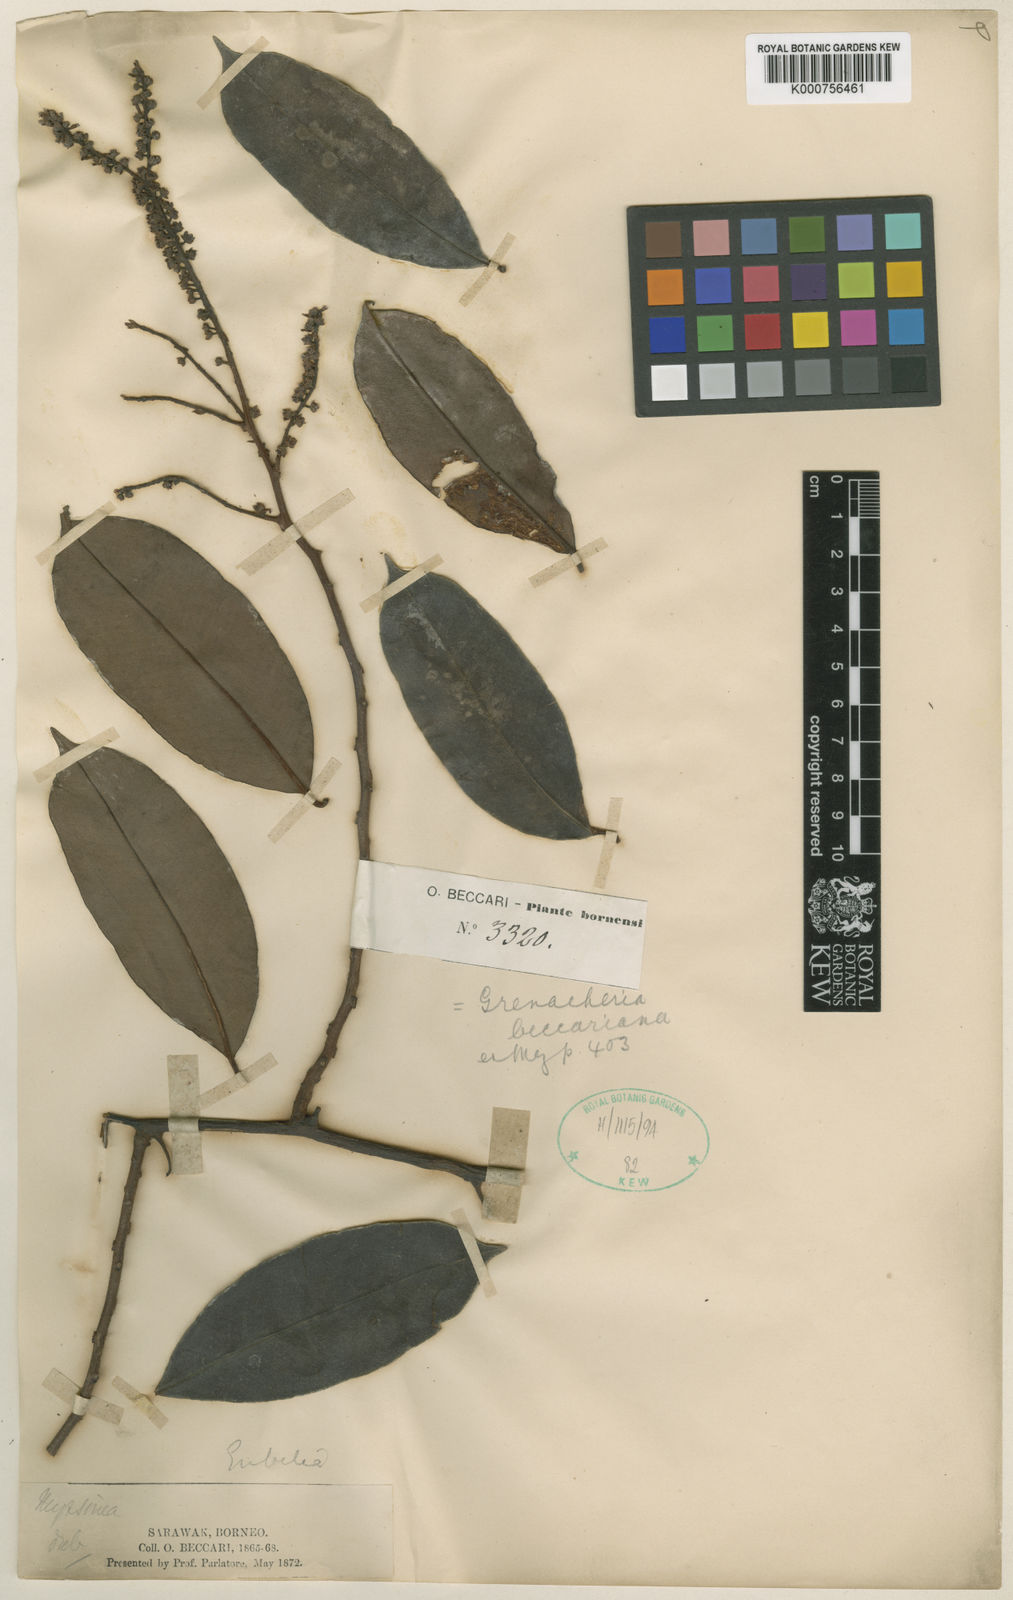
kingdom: Plantae
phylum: Tracheophyta
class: Magnoliopsida
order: Ericales
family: Primulaceae
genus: Grenacheria
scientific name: Grenacheria beccariana
